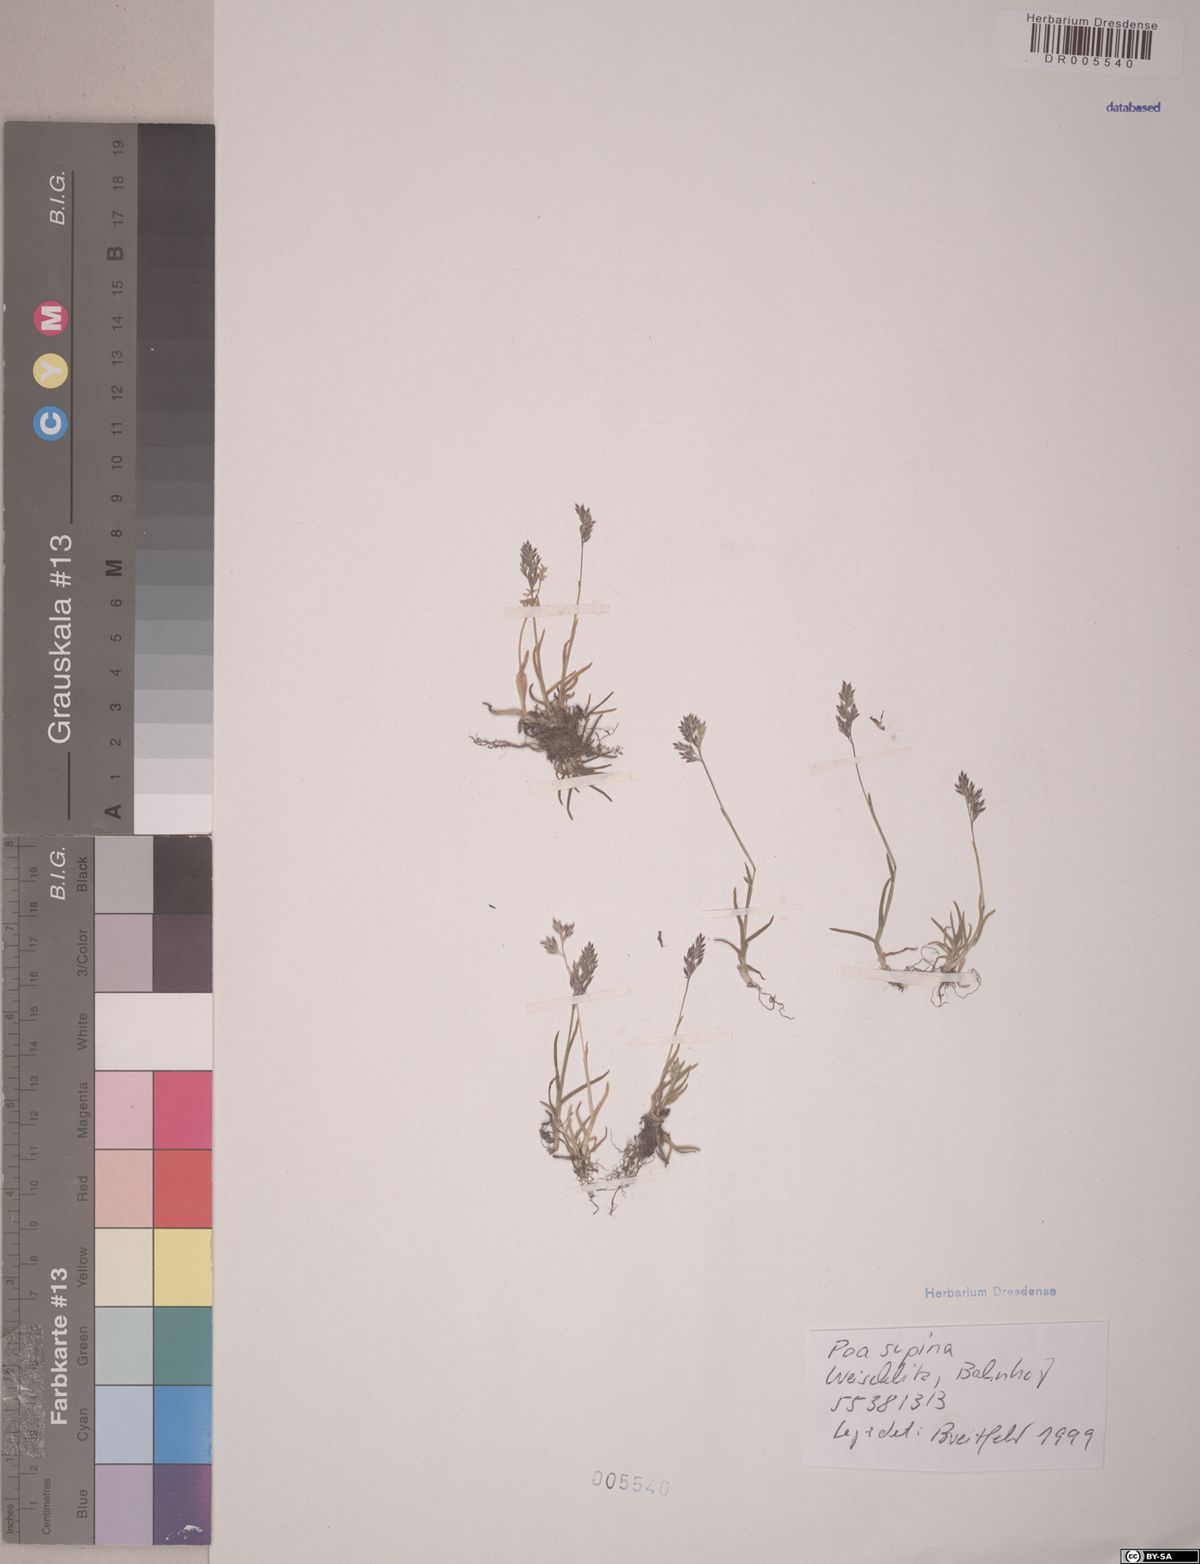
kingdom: Plantae
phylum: Tracheophyta
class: Liliopsida
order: Poales
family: Poaceae
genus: Poa
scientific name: Poa supina
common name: Supina bluegrass
